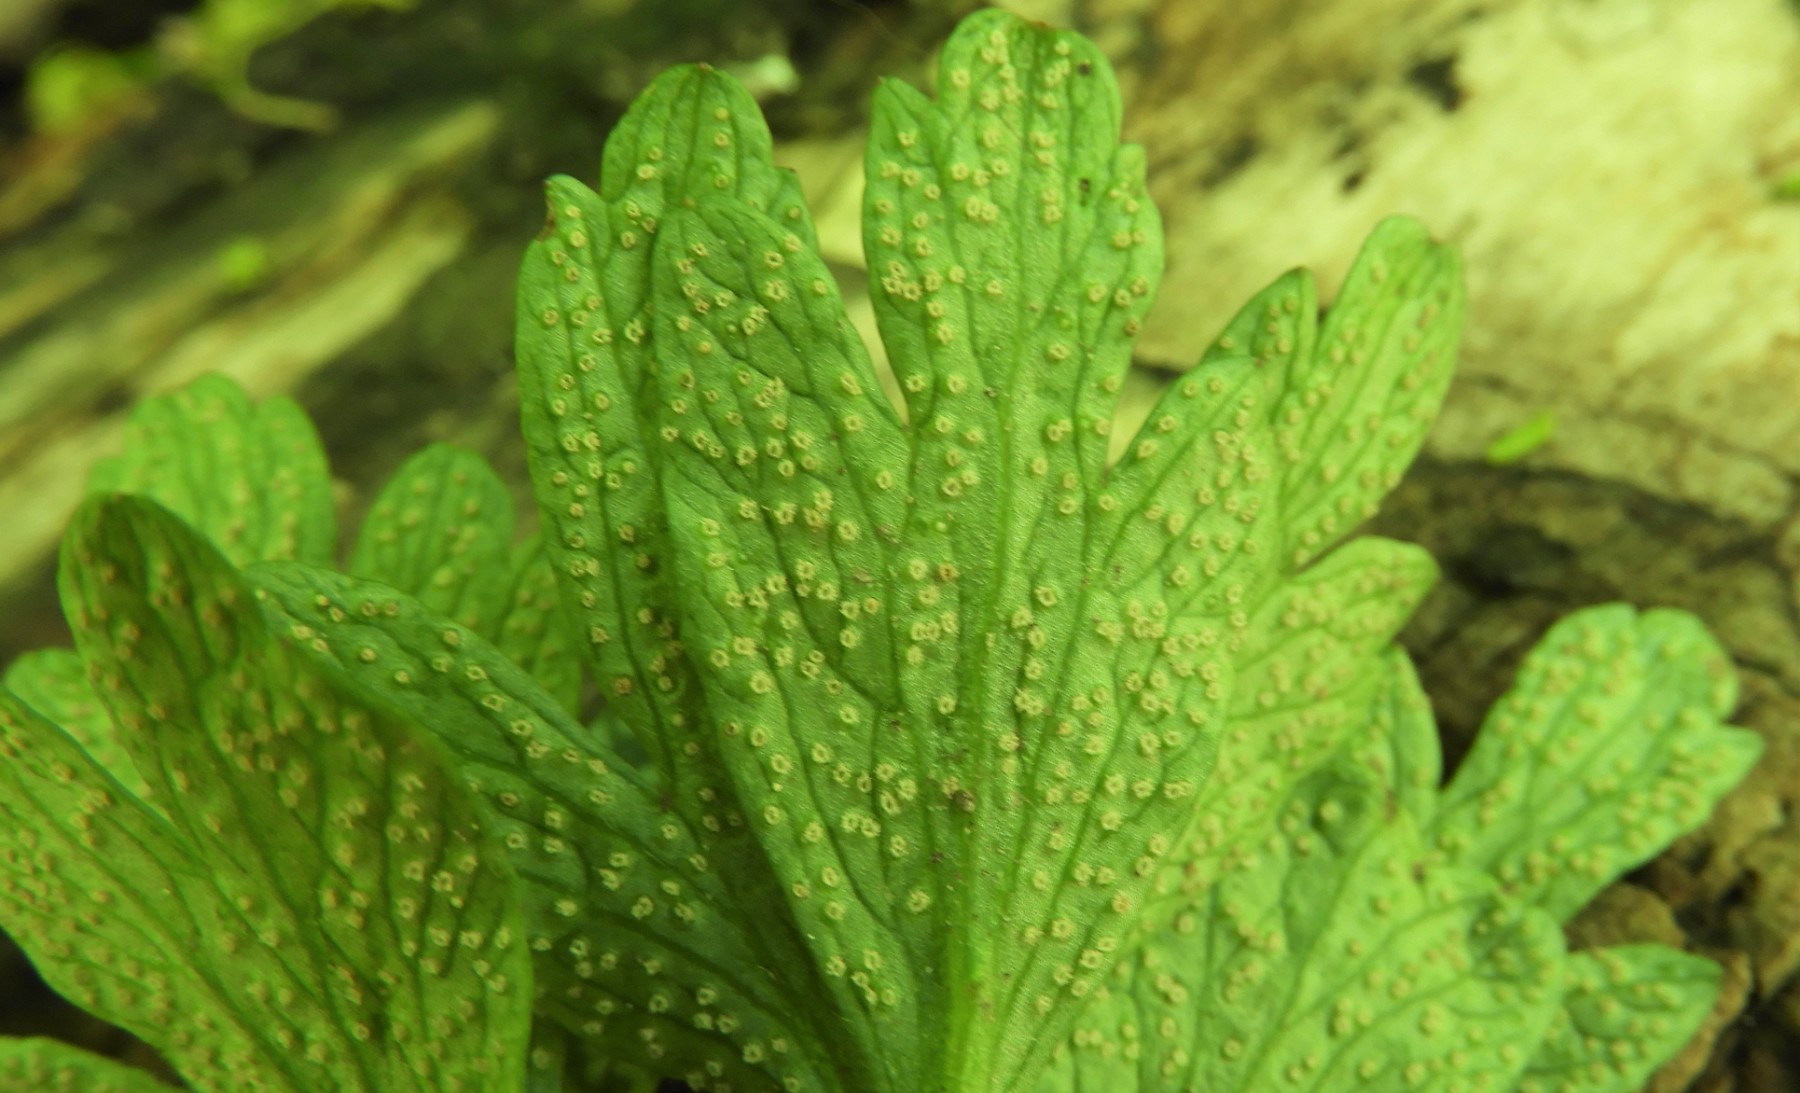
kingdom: Fungi
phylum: Basidiomycota
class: Pucciniomycetes
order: Pucciniales
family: Ochropsoraceae
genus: Ochropsora
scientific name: Ochropsora ariae
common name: anemone-okkerpletrust
